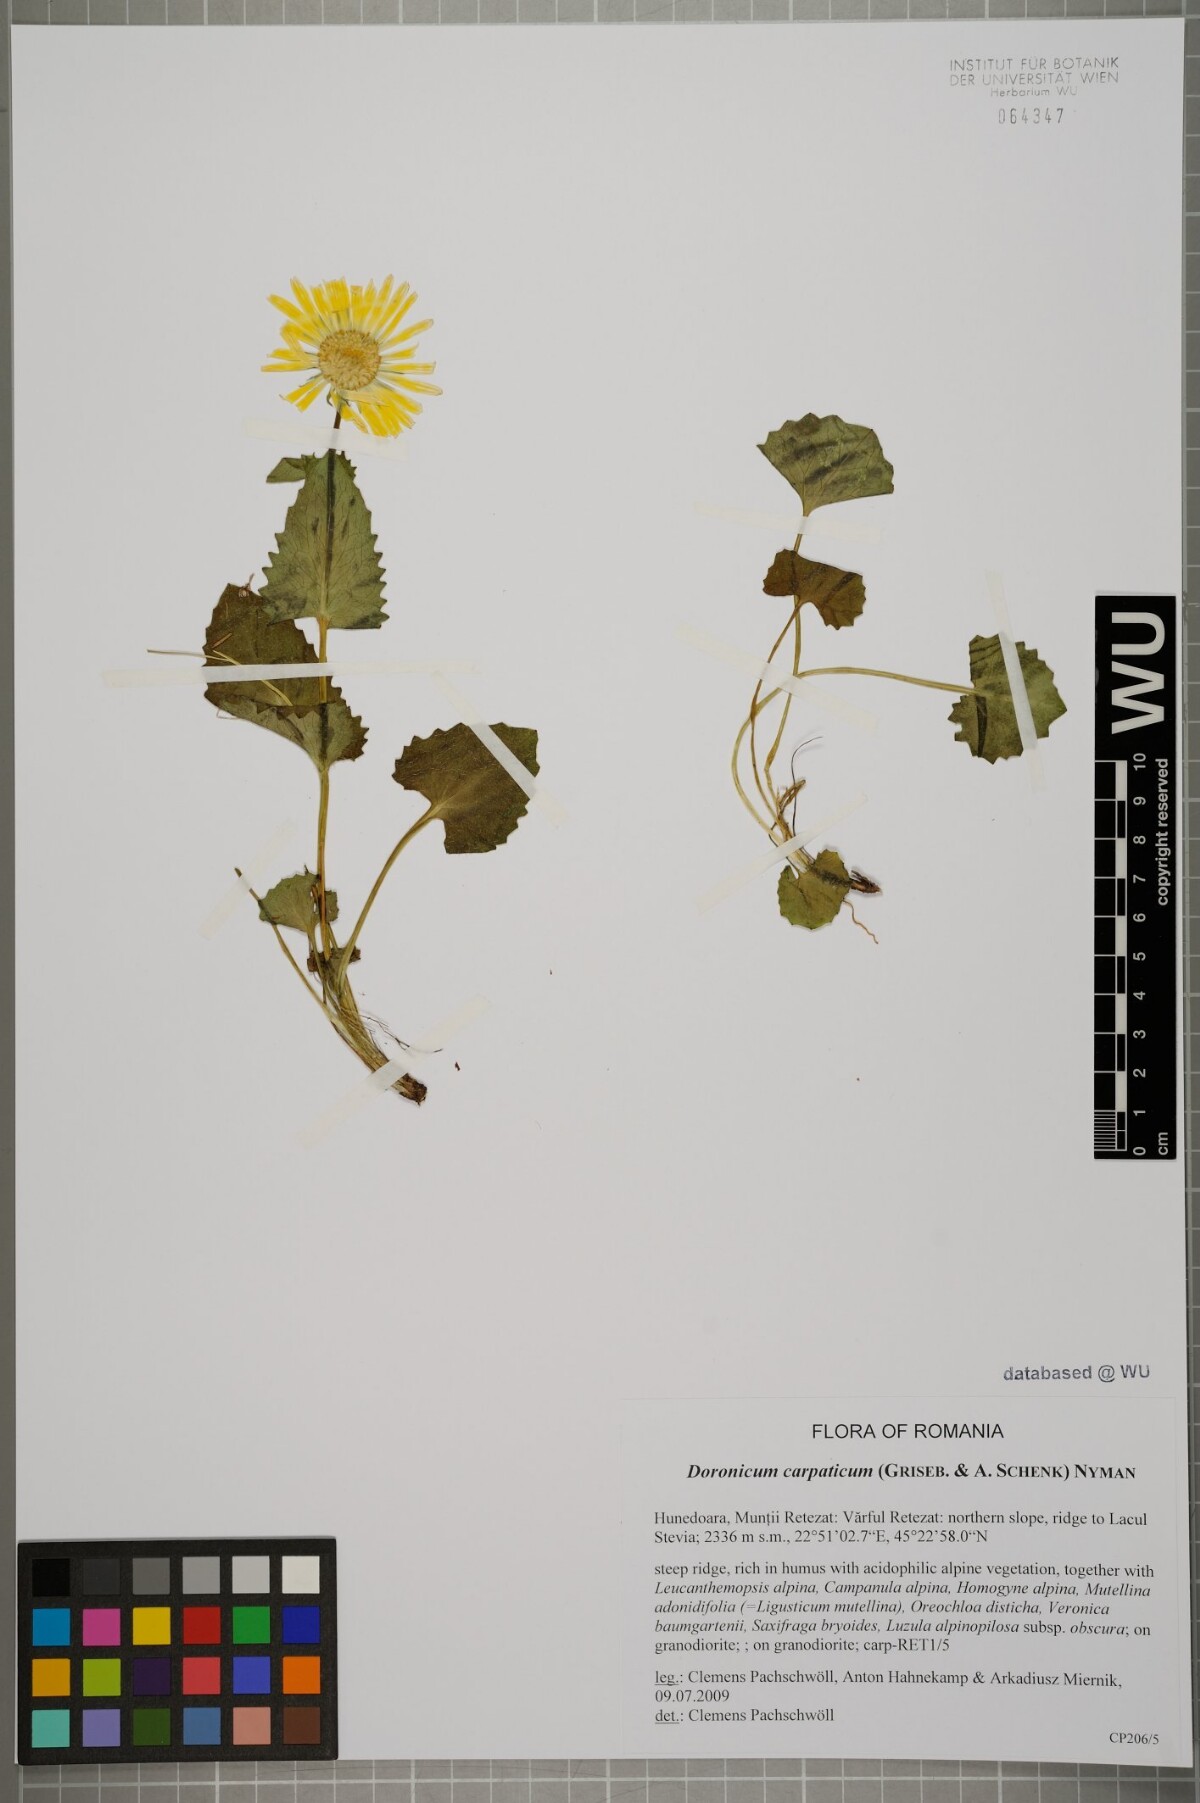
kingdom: Plantae
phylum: Tracheophyta
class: Magnoliopsida
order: Asterales
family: Asteraceae
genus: Doronicum
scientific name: Doronicum carpaticum
